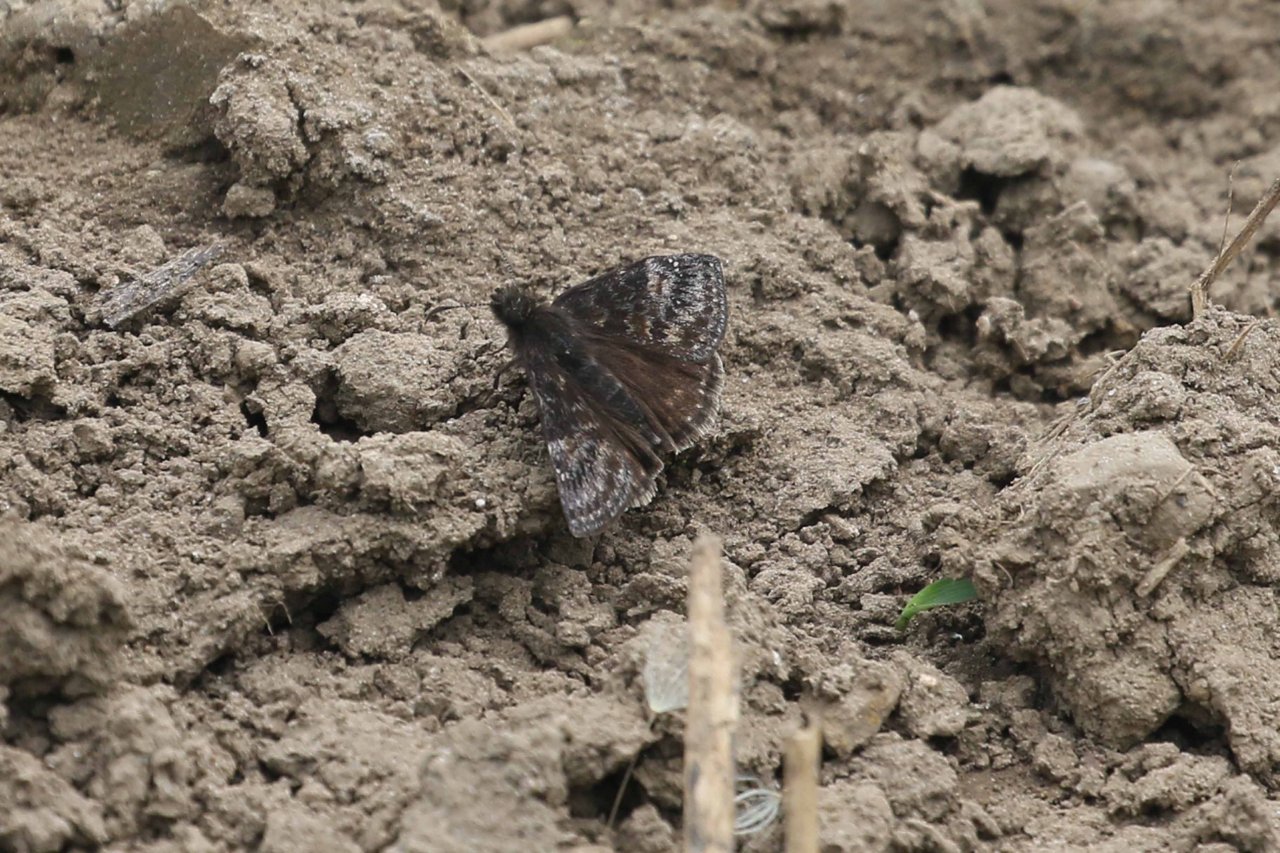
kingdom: Animalia
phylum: Arthropoda
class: Insecta
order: Lepidoptera
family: Hesperiidae
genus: Gesta
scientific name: Gesta
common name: Wild Indigo Duskywing
